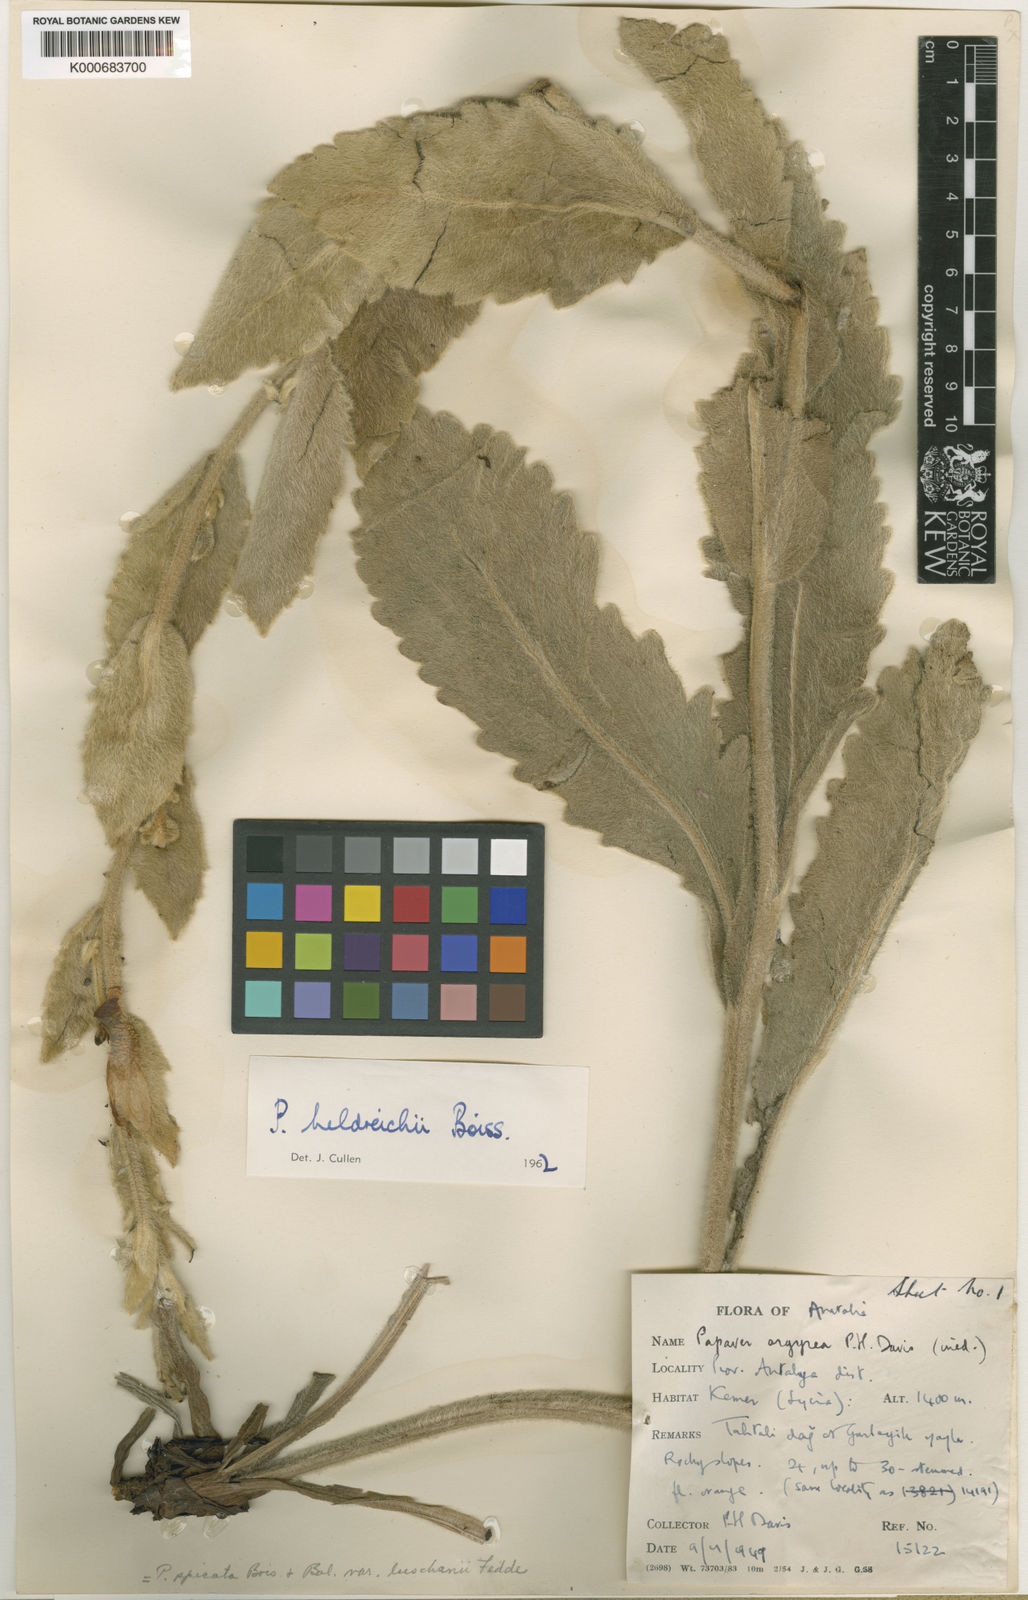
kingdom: Plantae
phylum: Tracheophyta
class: Magnoliopsida
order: Ranunculales
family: Papaveraceae
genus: Papaver
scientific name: Papaver pilosum
